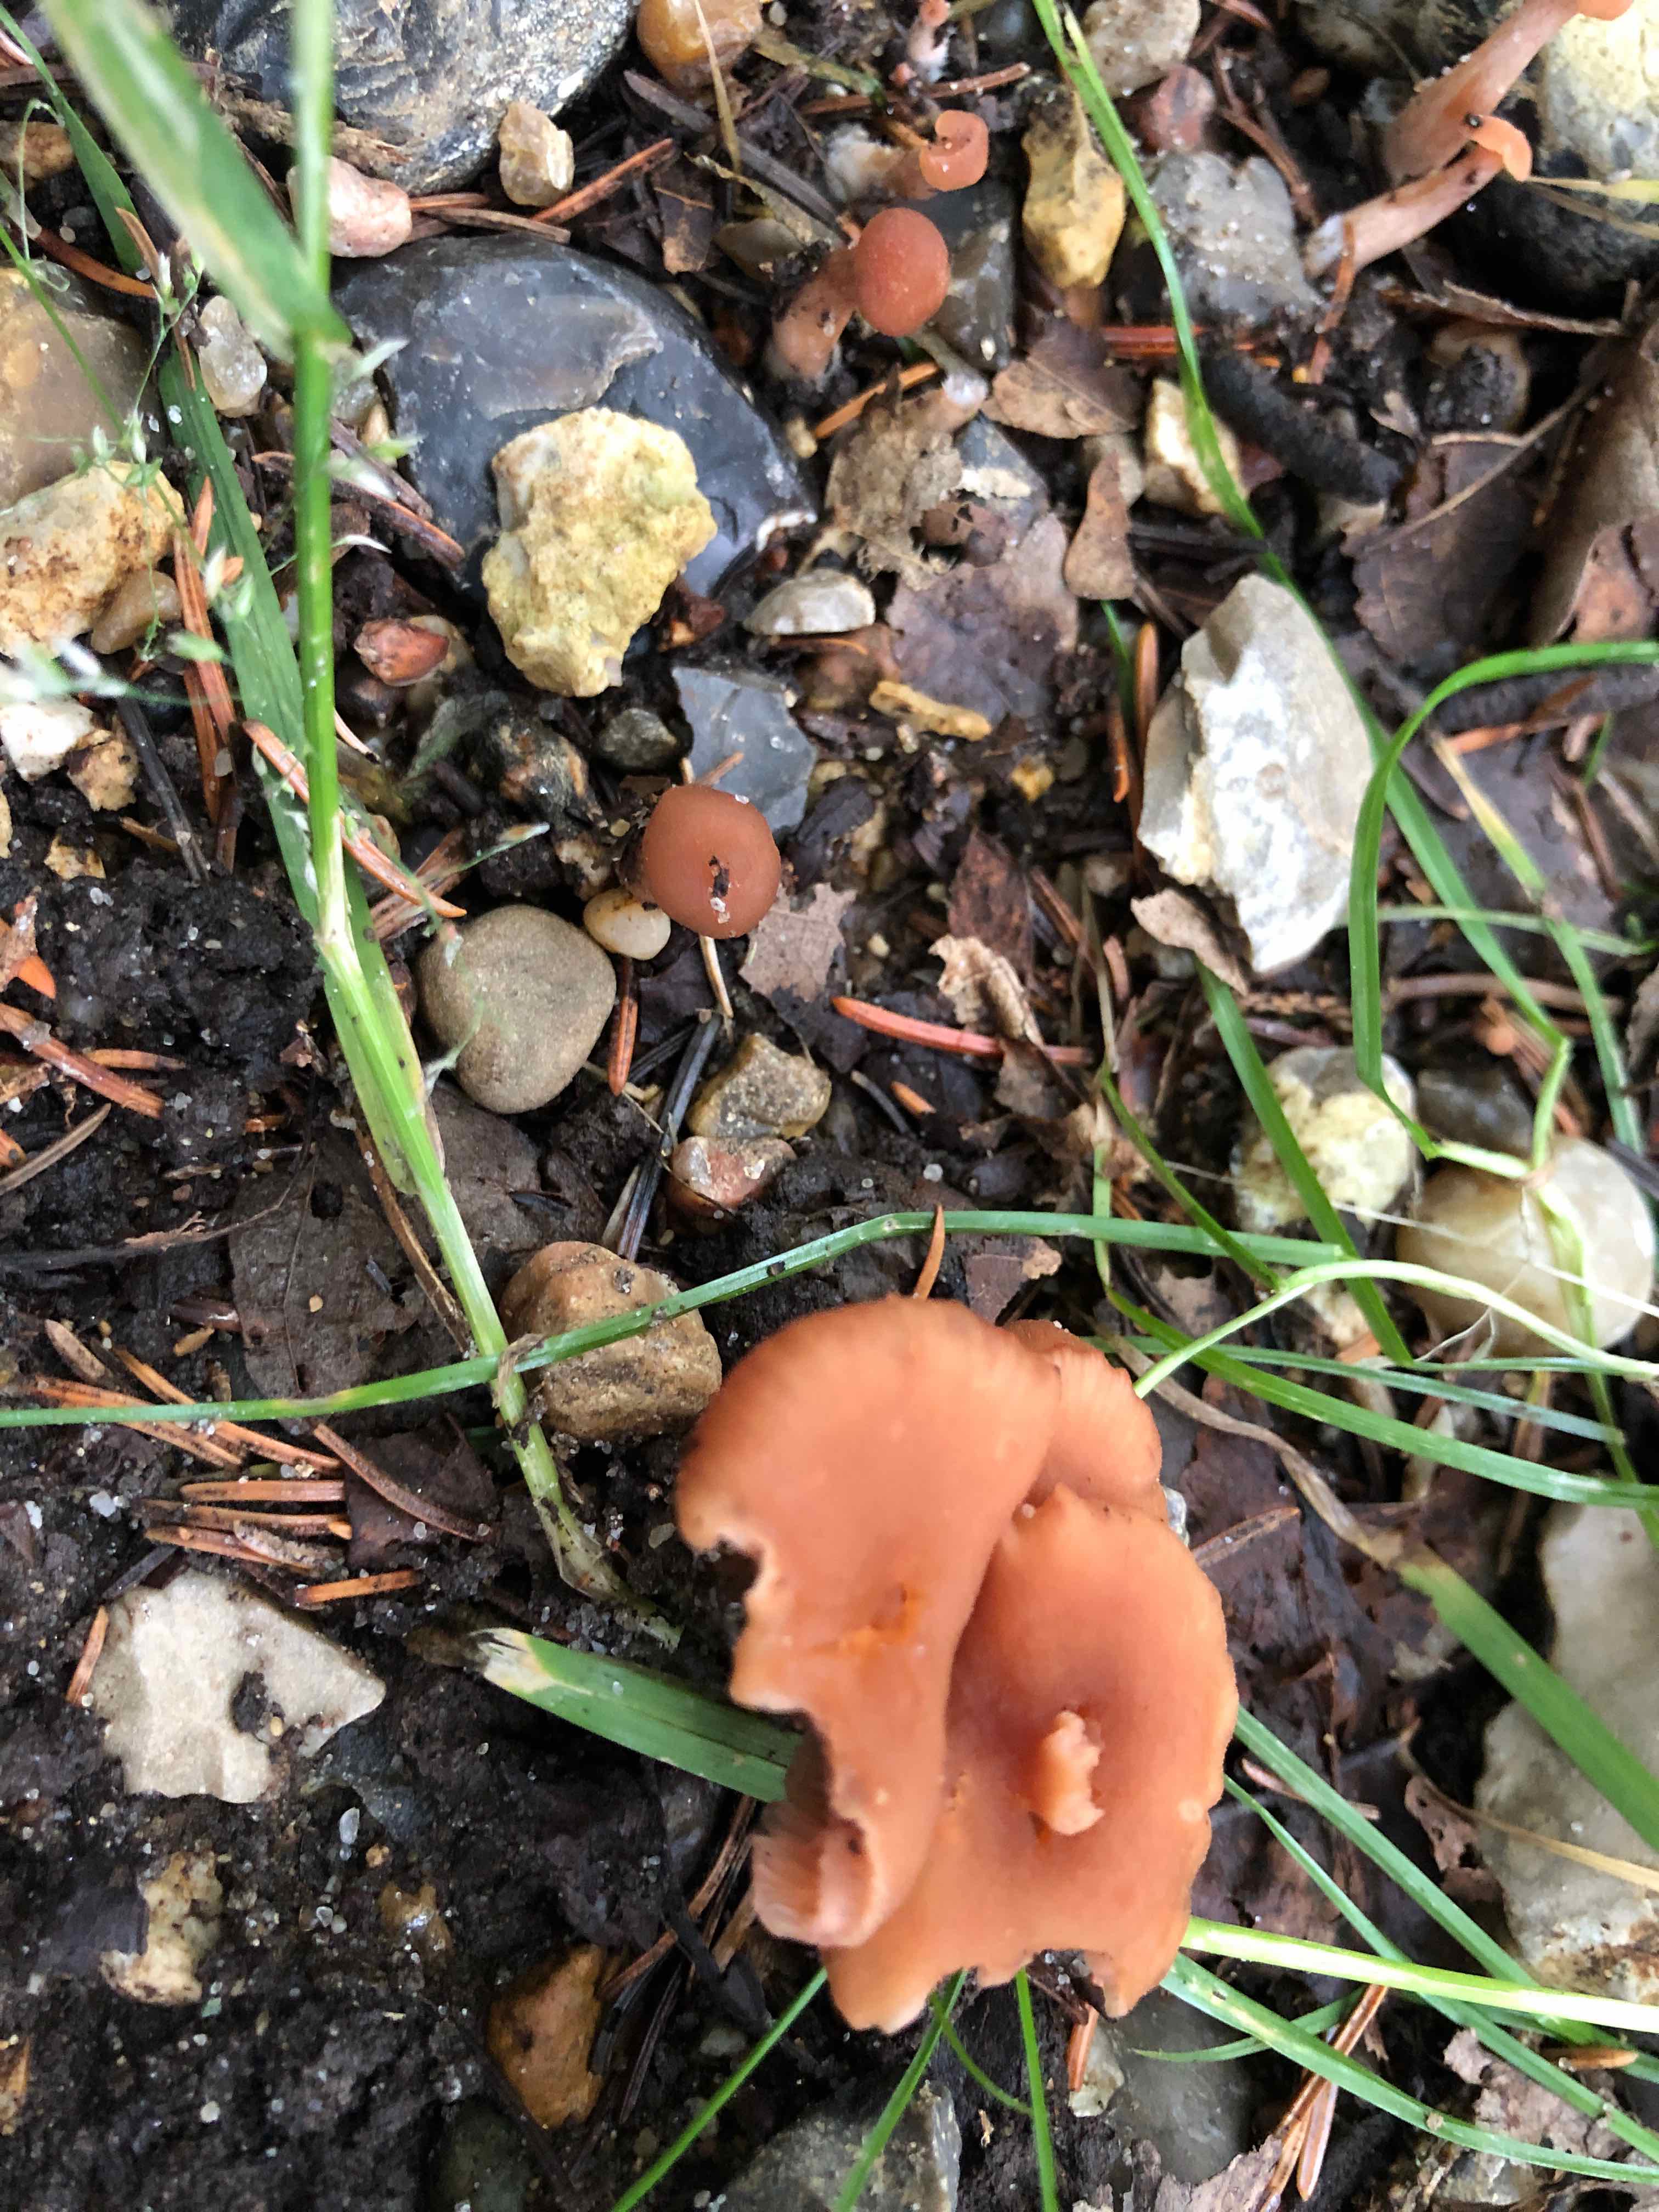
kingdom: Fungi
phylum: Basidiomycota
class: Agaricomycetes
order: Agaricales
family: Hydnangiaceae
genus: Laccaria
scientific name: Laccaria laccata
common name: rød ametysthat
